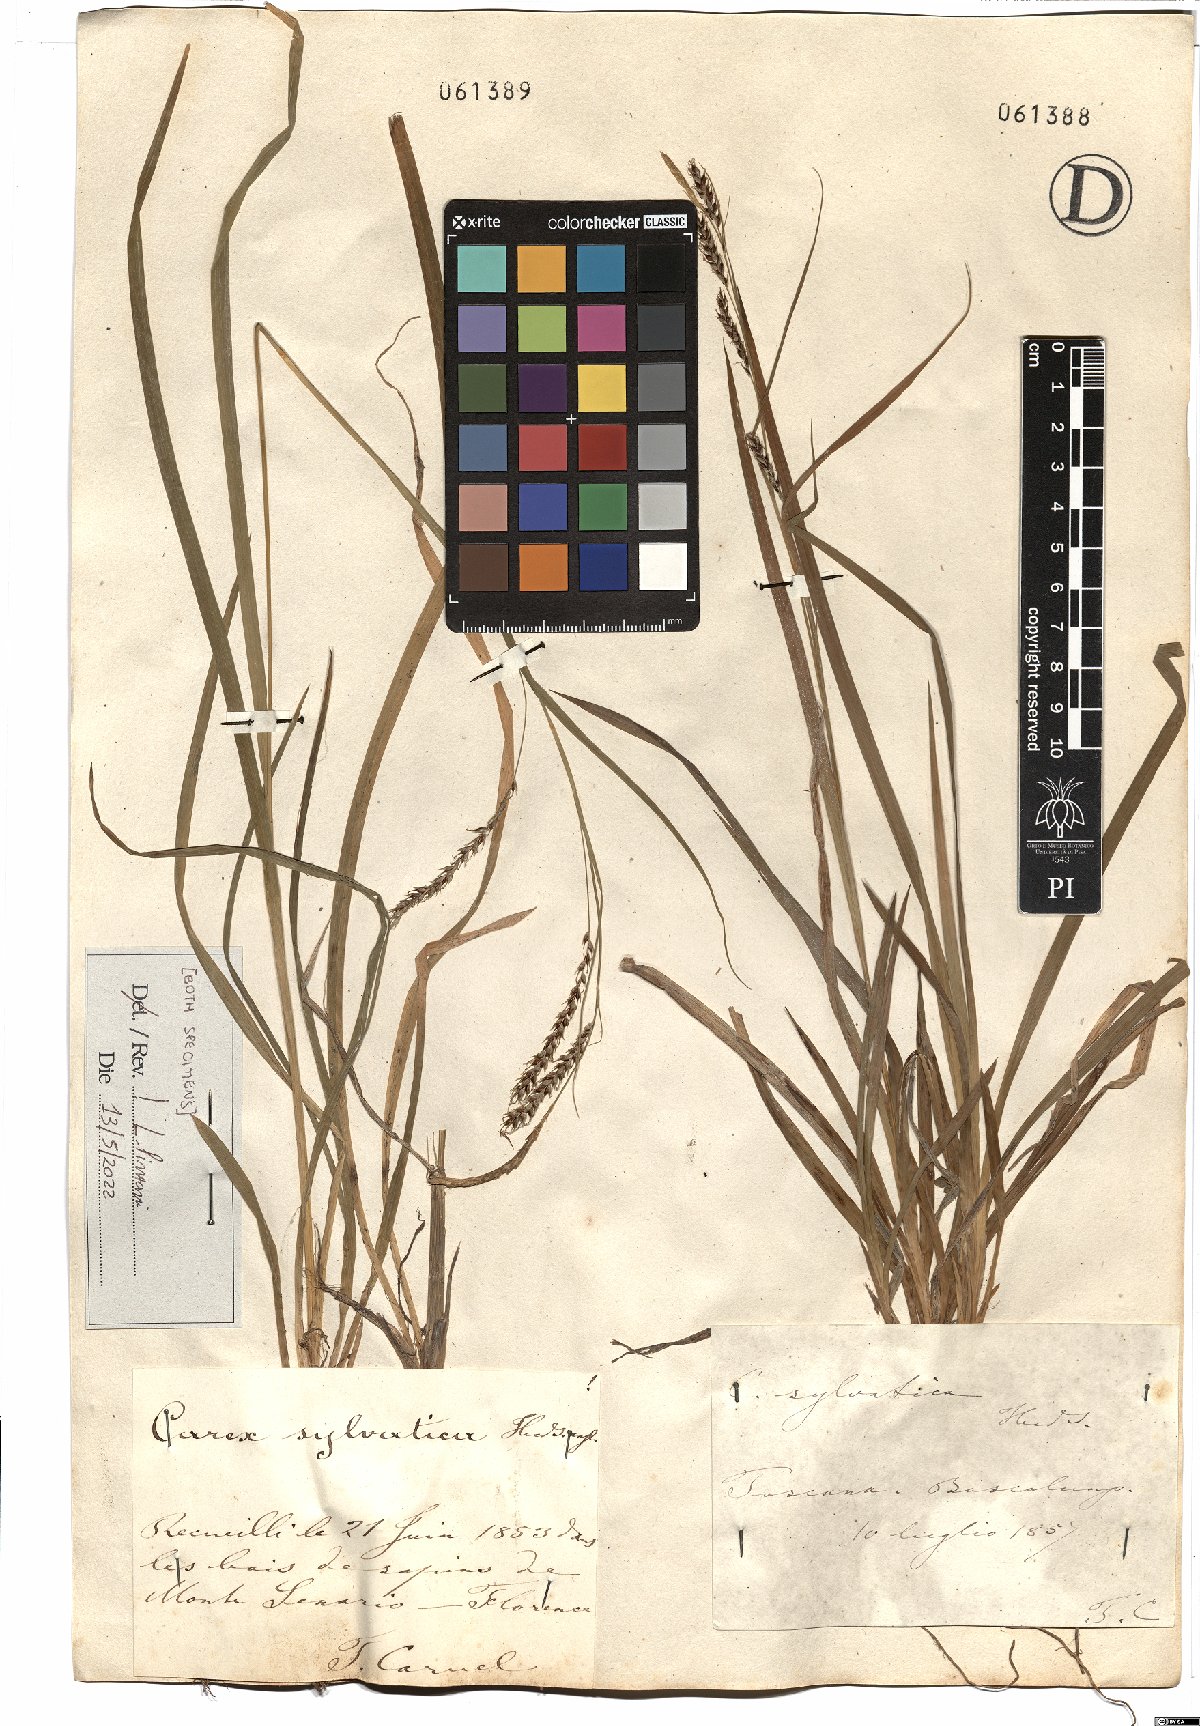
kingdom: Plantae
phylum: Tracheophyta
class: Liliopsida
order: Poales
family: Cyperaceae
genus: Carex
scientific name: Carex sylvatica
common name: Wood-sedge
